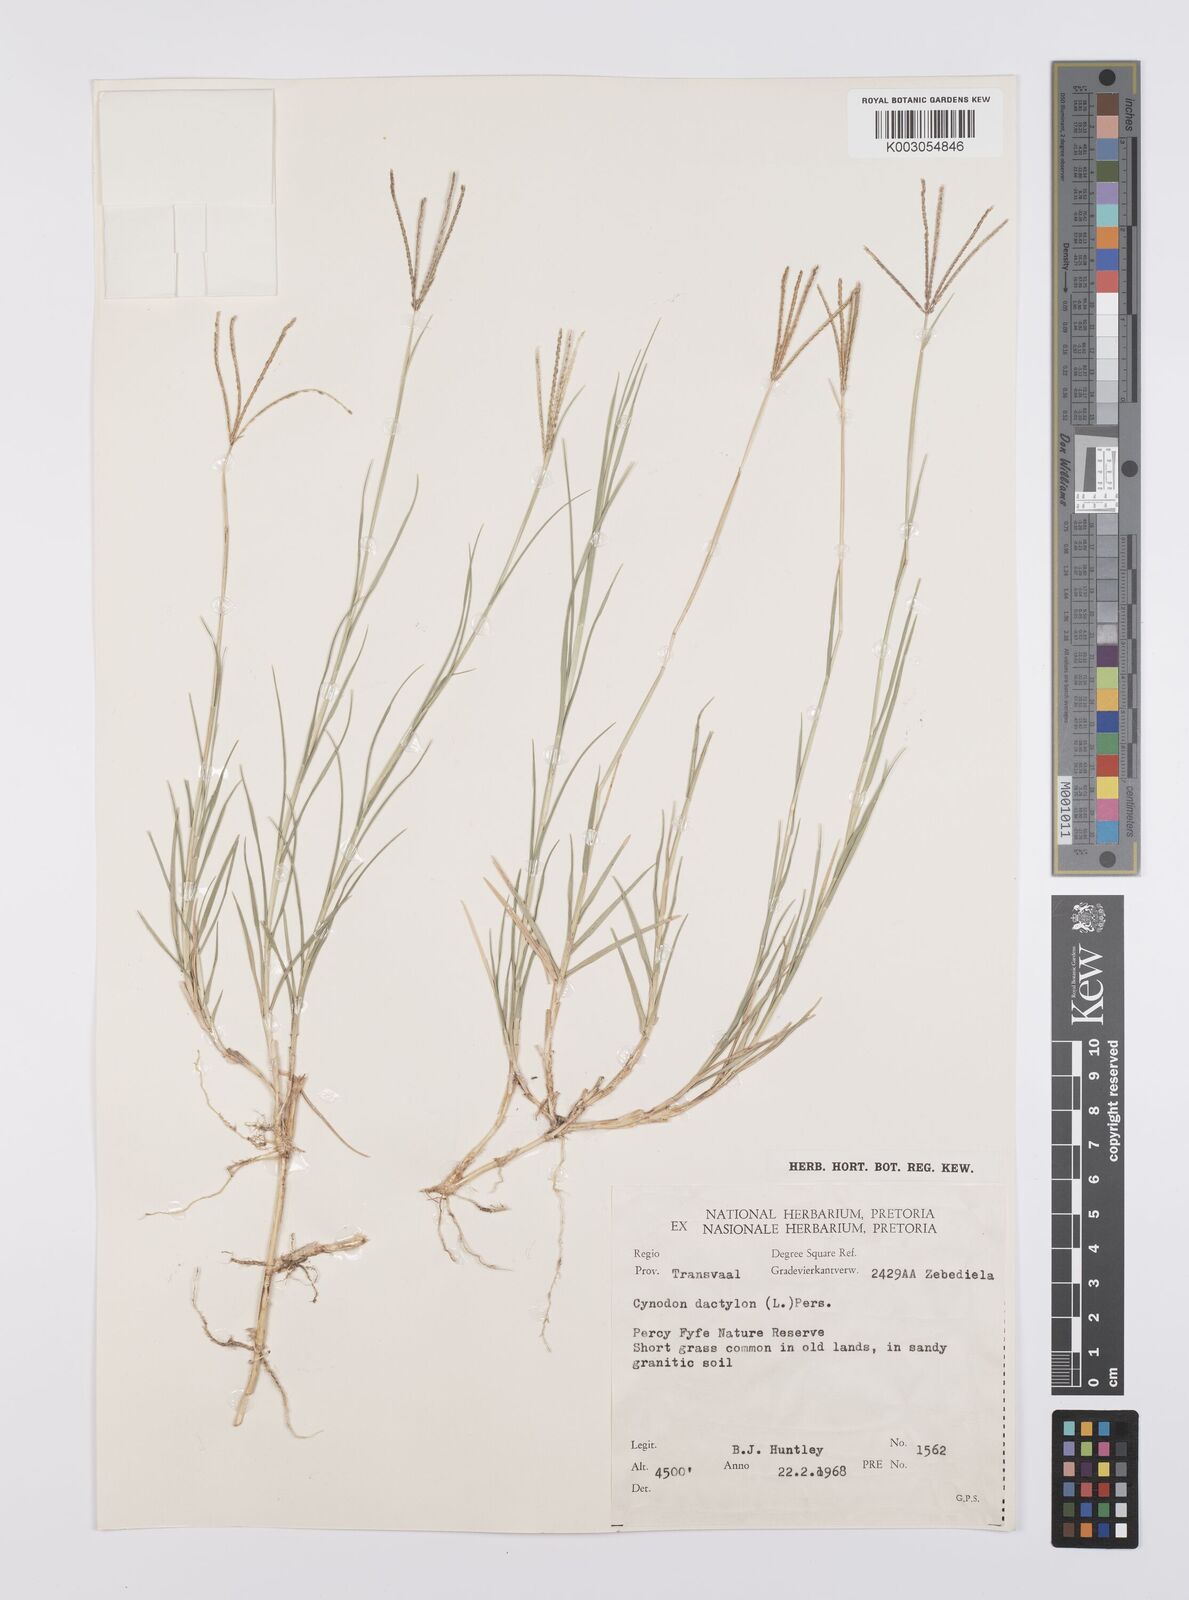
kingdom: Plantae
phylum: Tracheophyta
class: Liliopsida
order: Poales
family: Poaceae
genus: Cynodon
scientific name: Cynodon dactylon
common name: Bermuda grass
